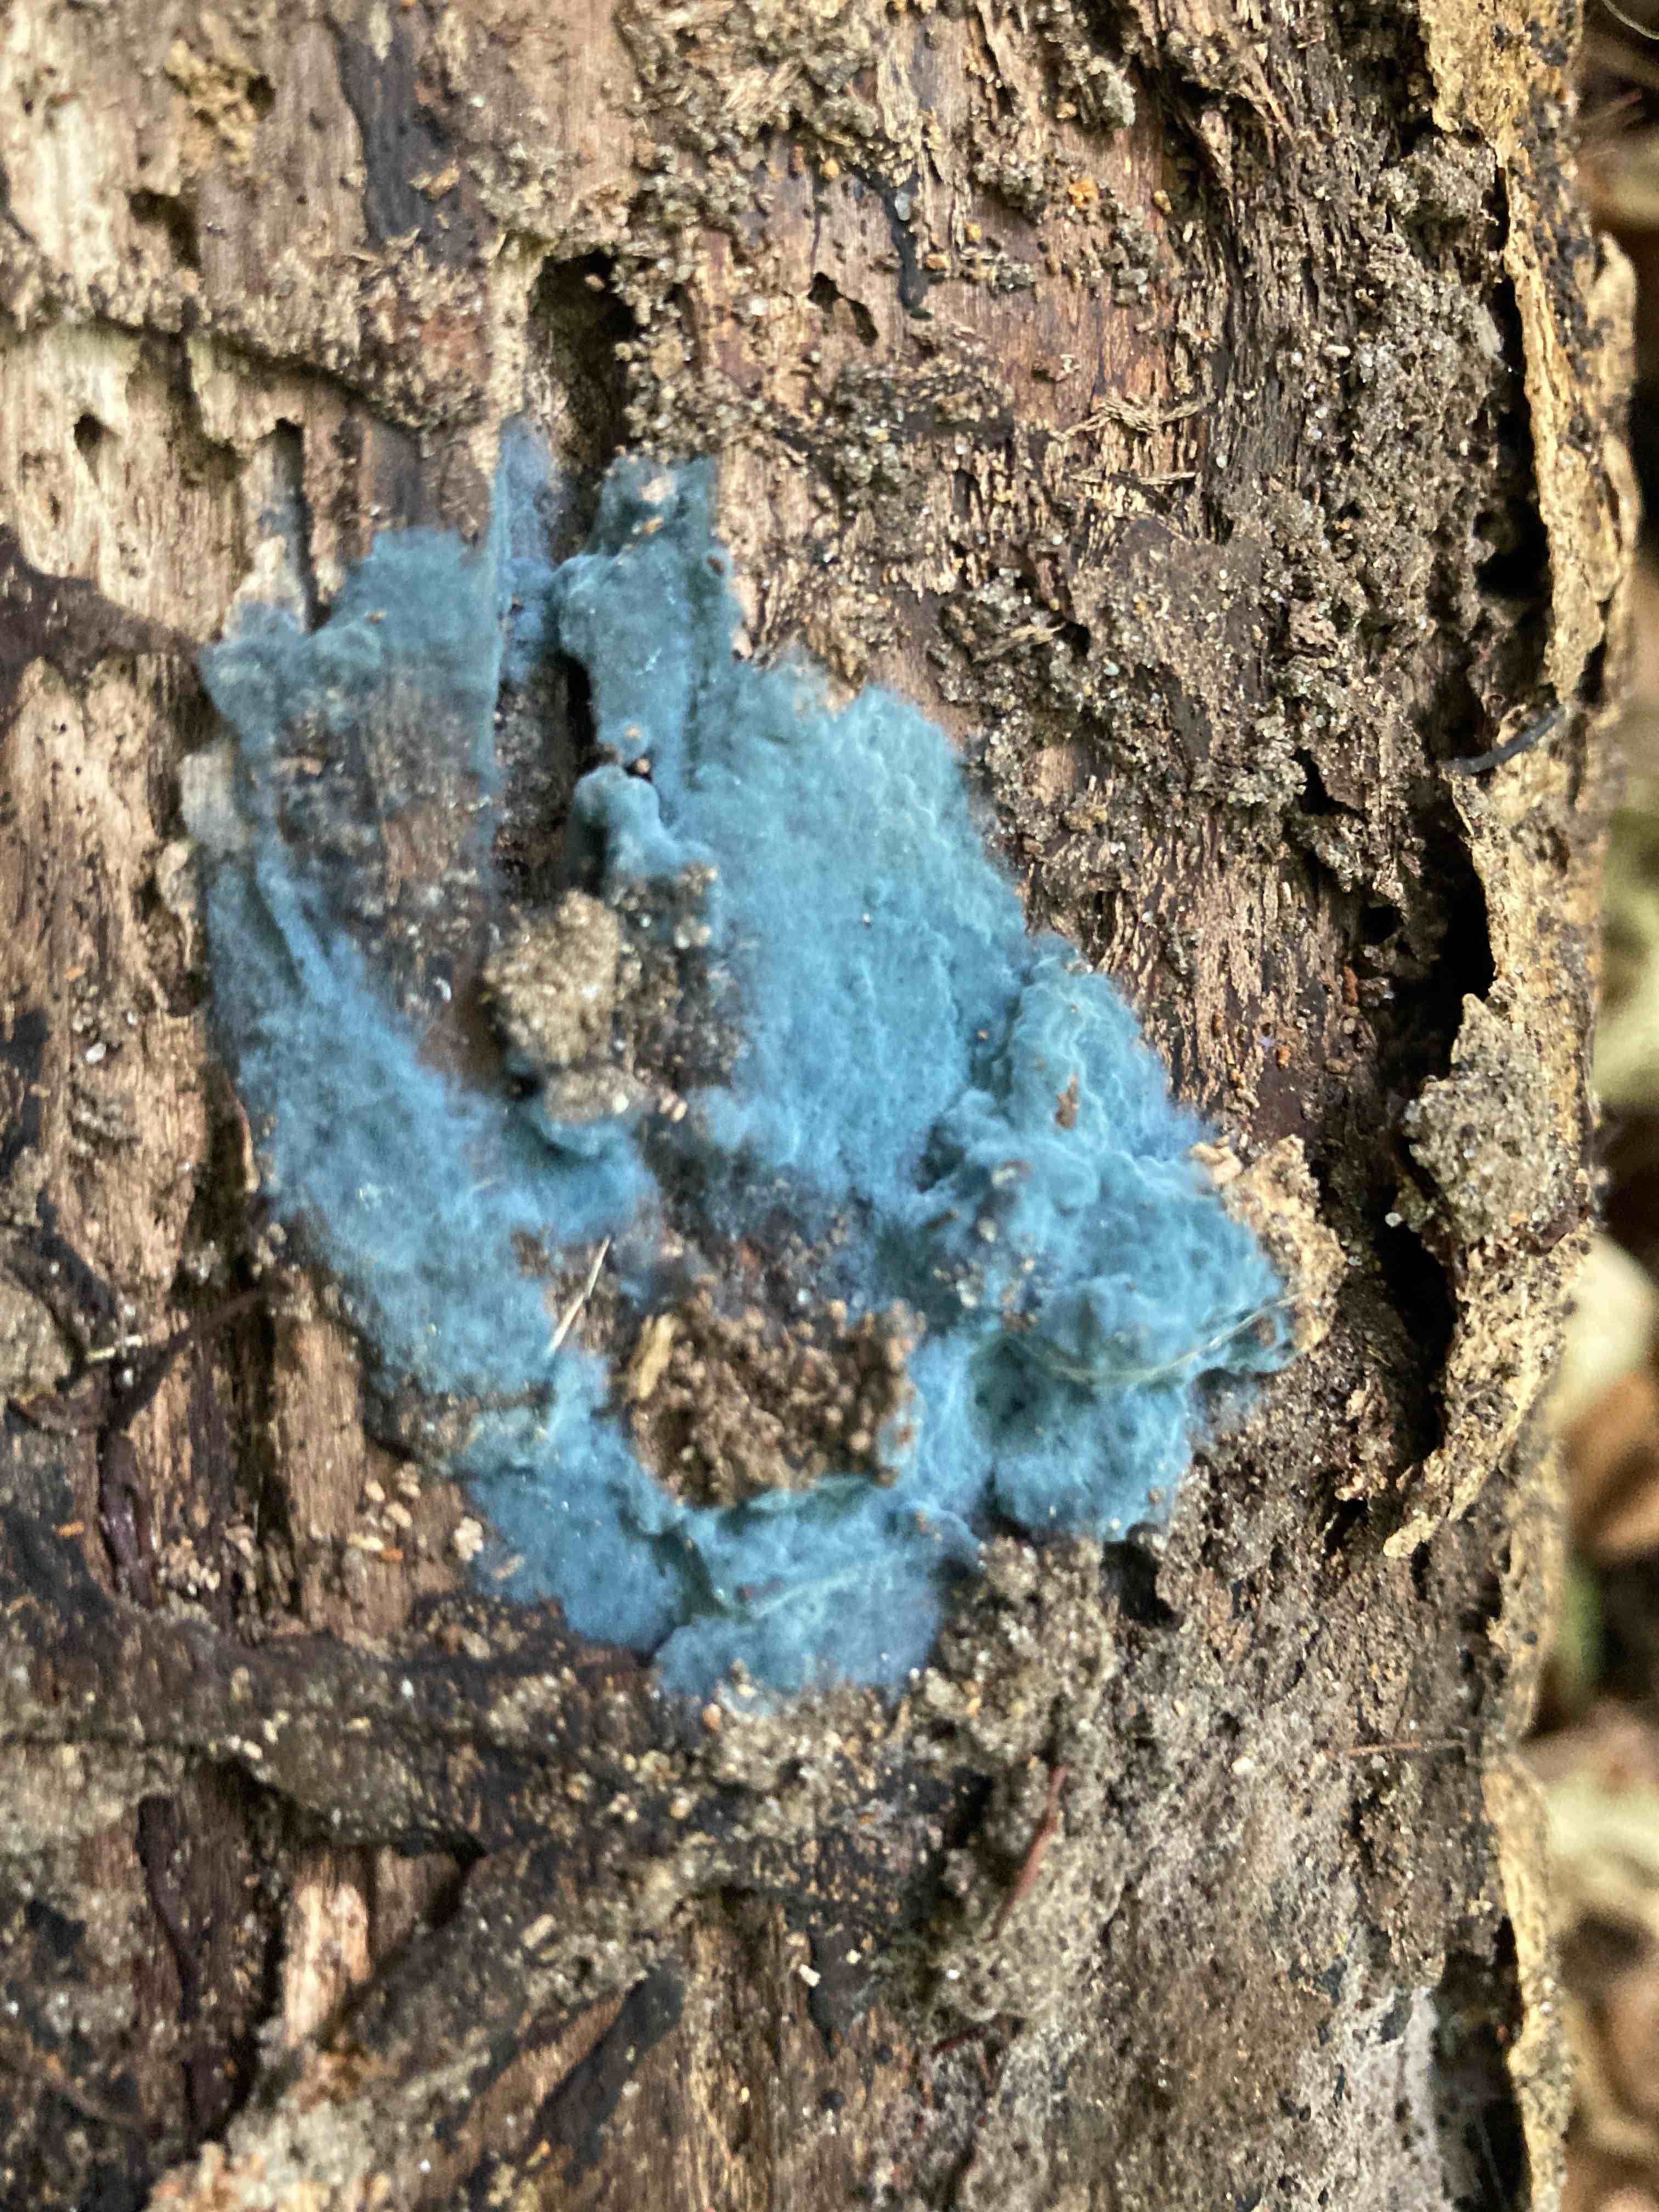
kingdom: Fungi
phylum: Basidiomycota
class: Agaricomycetes
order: Atheliales
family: Atheliaceae
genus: Byssocorticium
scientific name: Byssocorticium atrovirens
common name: blå førnehinde
